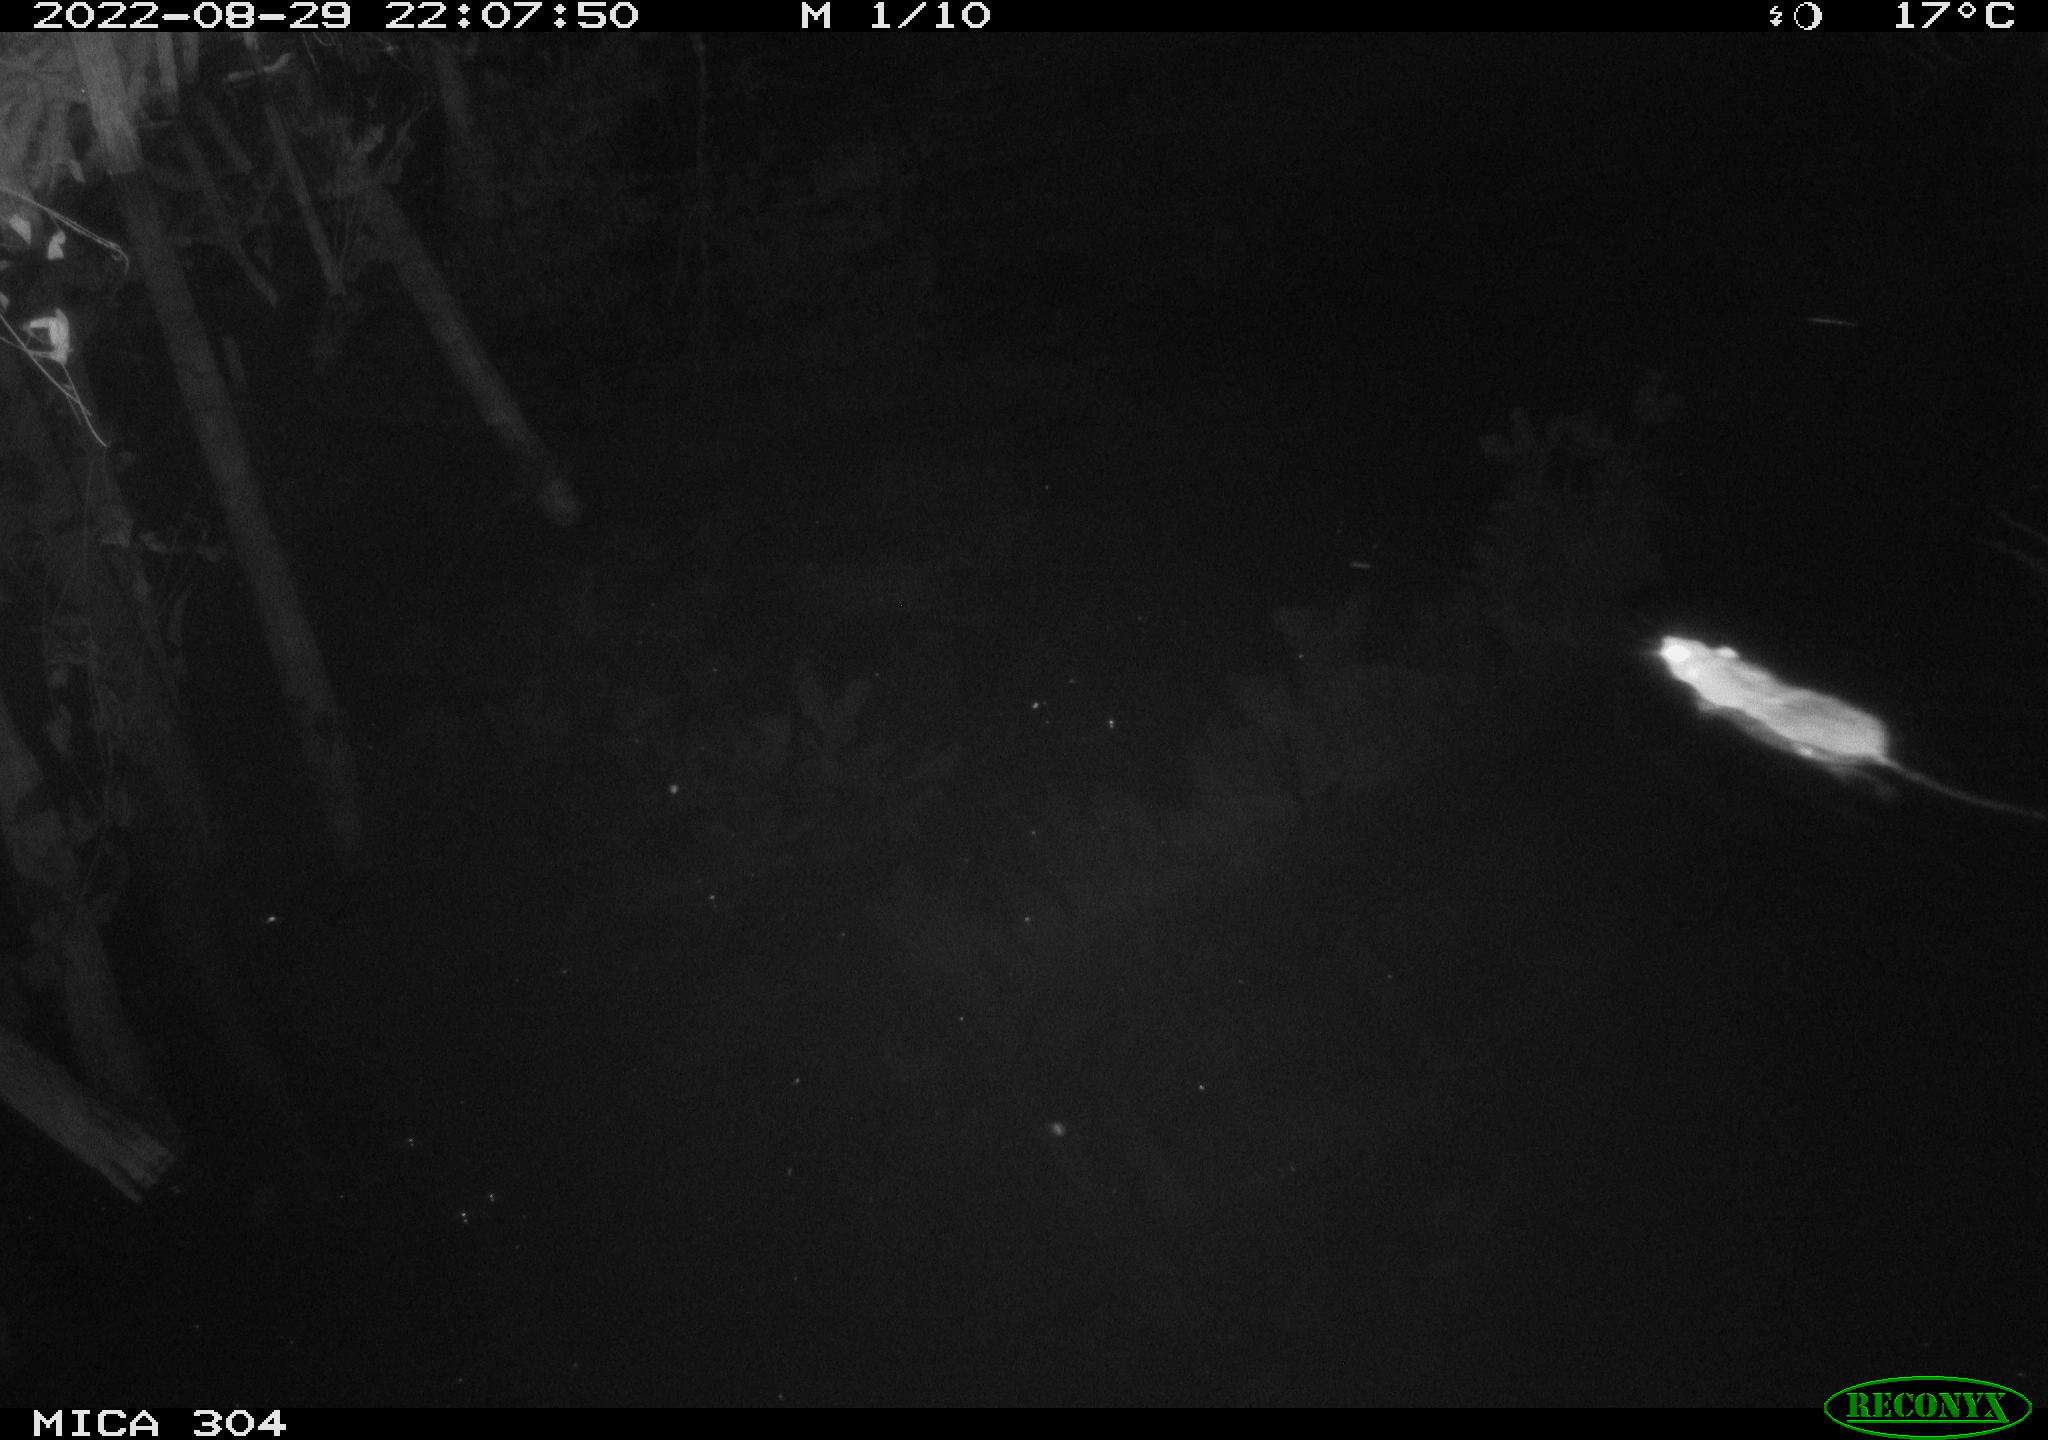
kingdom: Animalia
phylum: Chordata
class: Mammalia
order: Rodentia
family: Muridae
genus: Rattus
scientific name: Rattus norvegicus
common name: Brown rat
